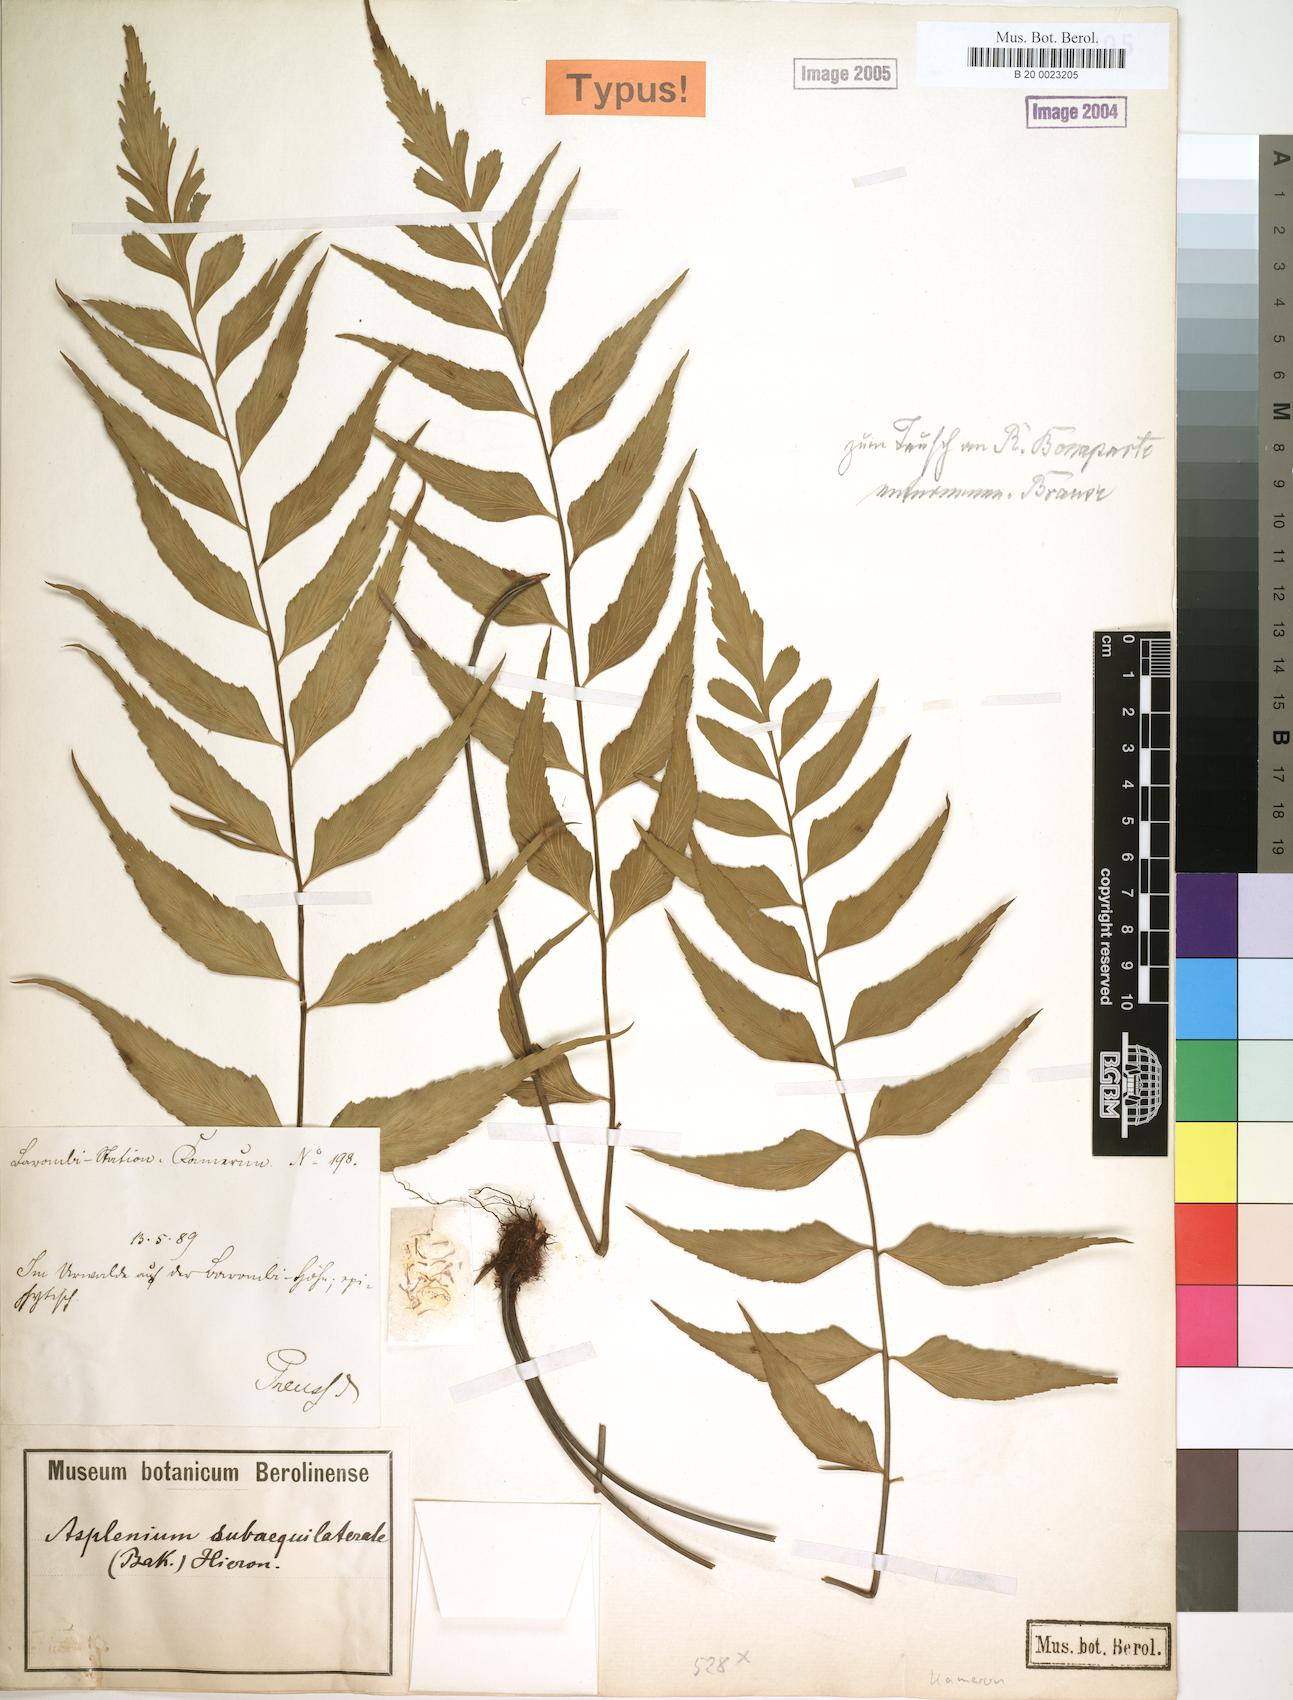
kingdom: Plantae
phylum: Tracheophyta
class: Polypodiopsida
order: Polypodiales
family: Aspleniaceae
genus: Asplenium
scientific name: Asplenium subaequilaterale
